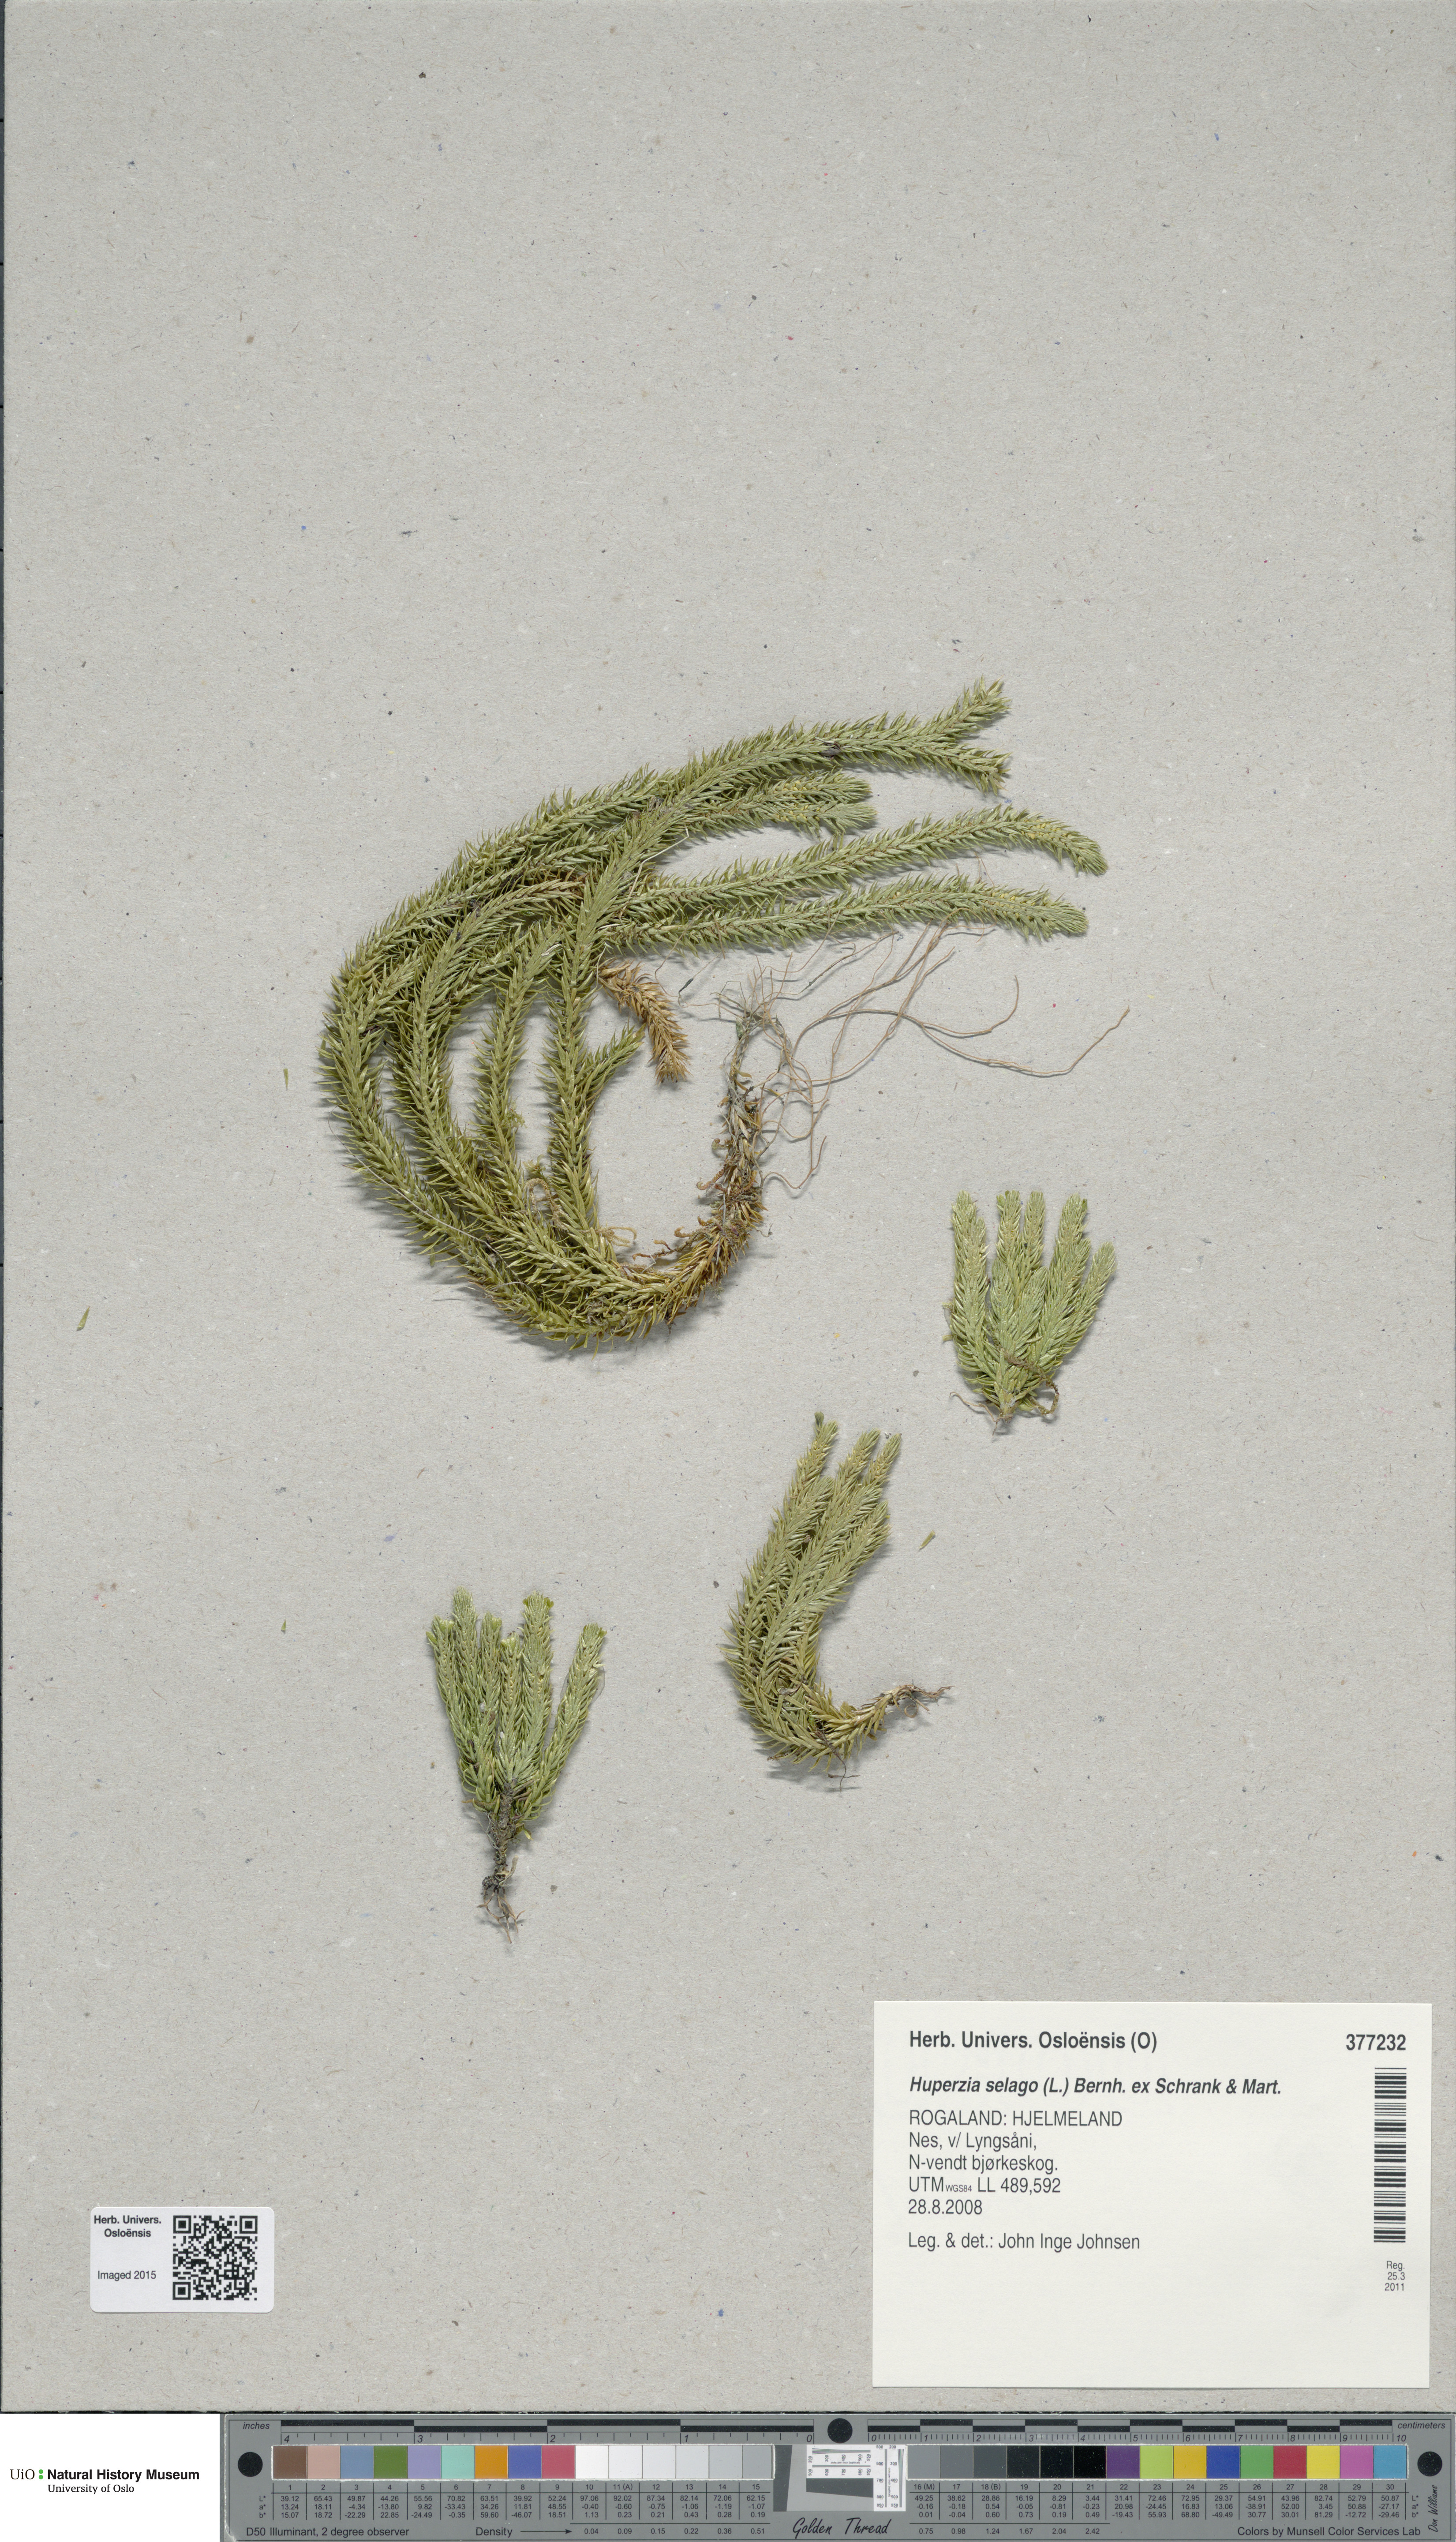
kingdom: Plantae
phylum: Tracheophyta
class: Lycopodiopsida
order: Lycopodiales
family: Lycopodiaceae
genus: Huperzia
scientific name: Huperzia selago
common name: Northern firmoss
